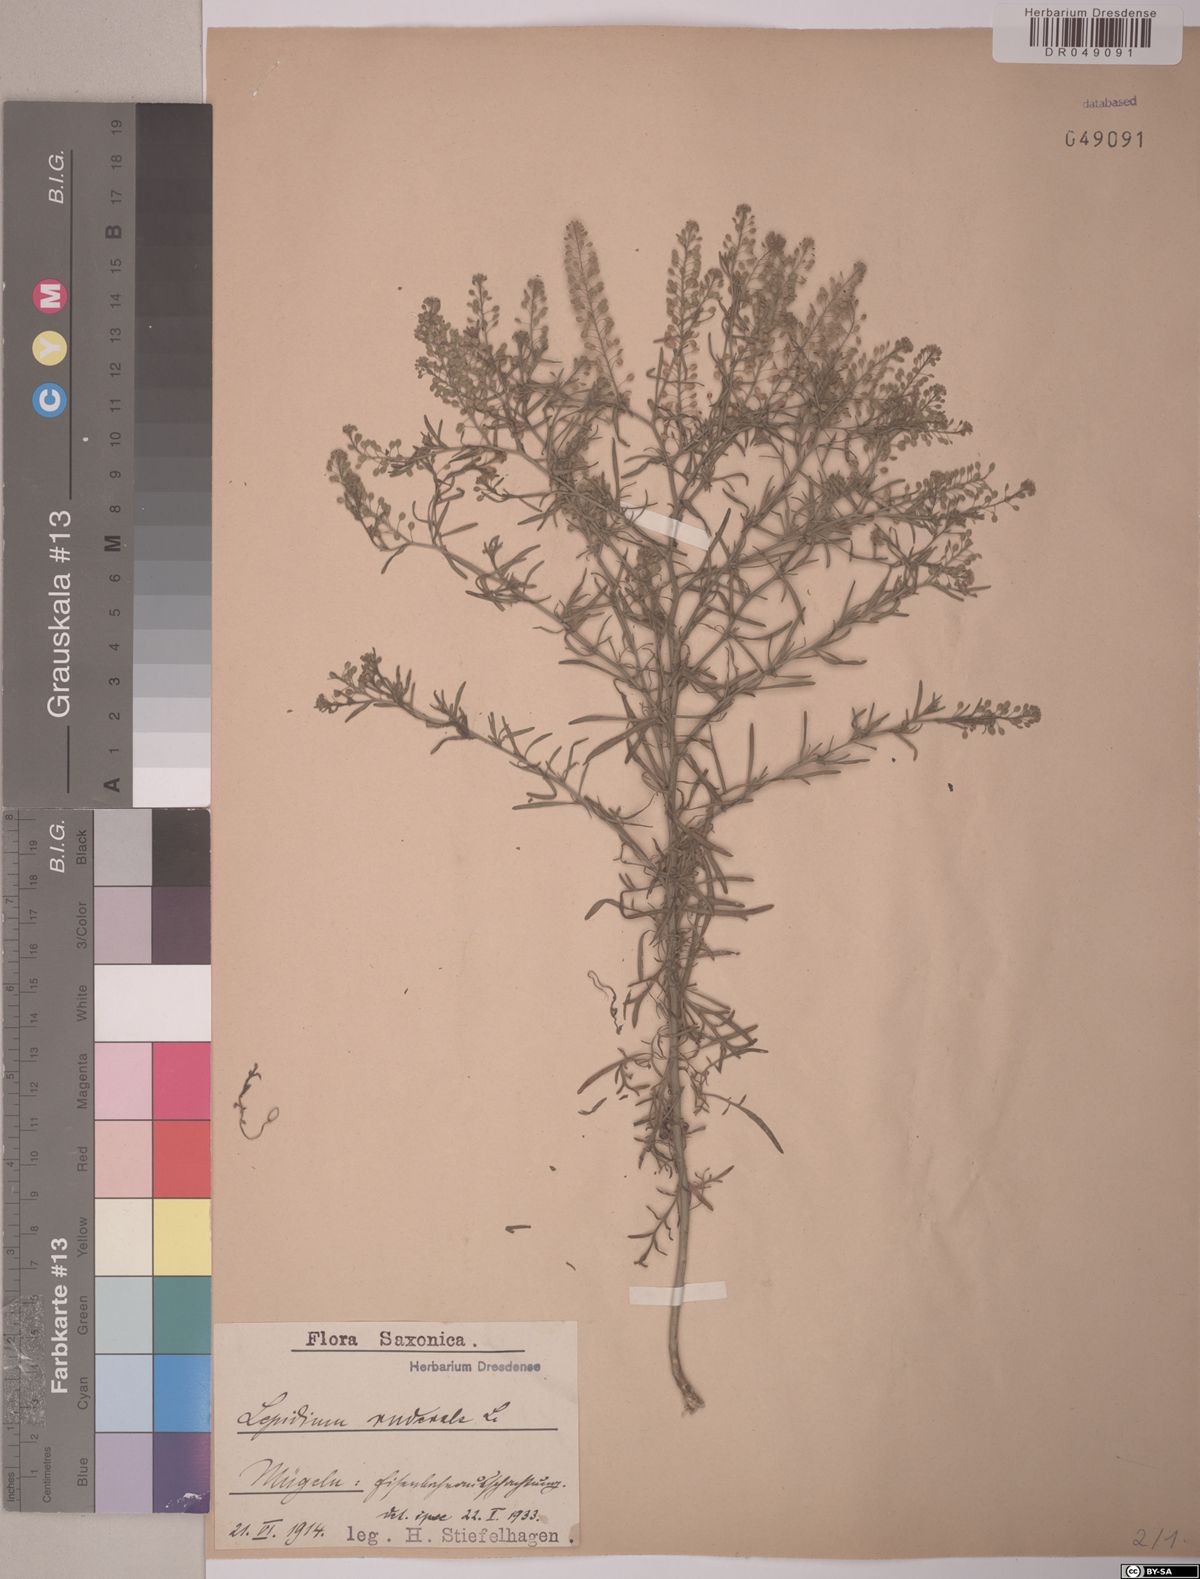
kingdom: Plantae
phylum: Tracheophyta
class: Magnoliopsida
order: Brassicales
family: Brassicaceae
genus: Lepidium
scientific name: Lepidium ruderale
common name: Narrow-leaved pepperwort
